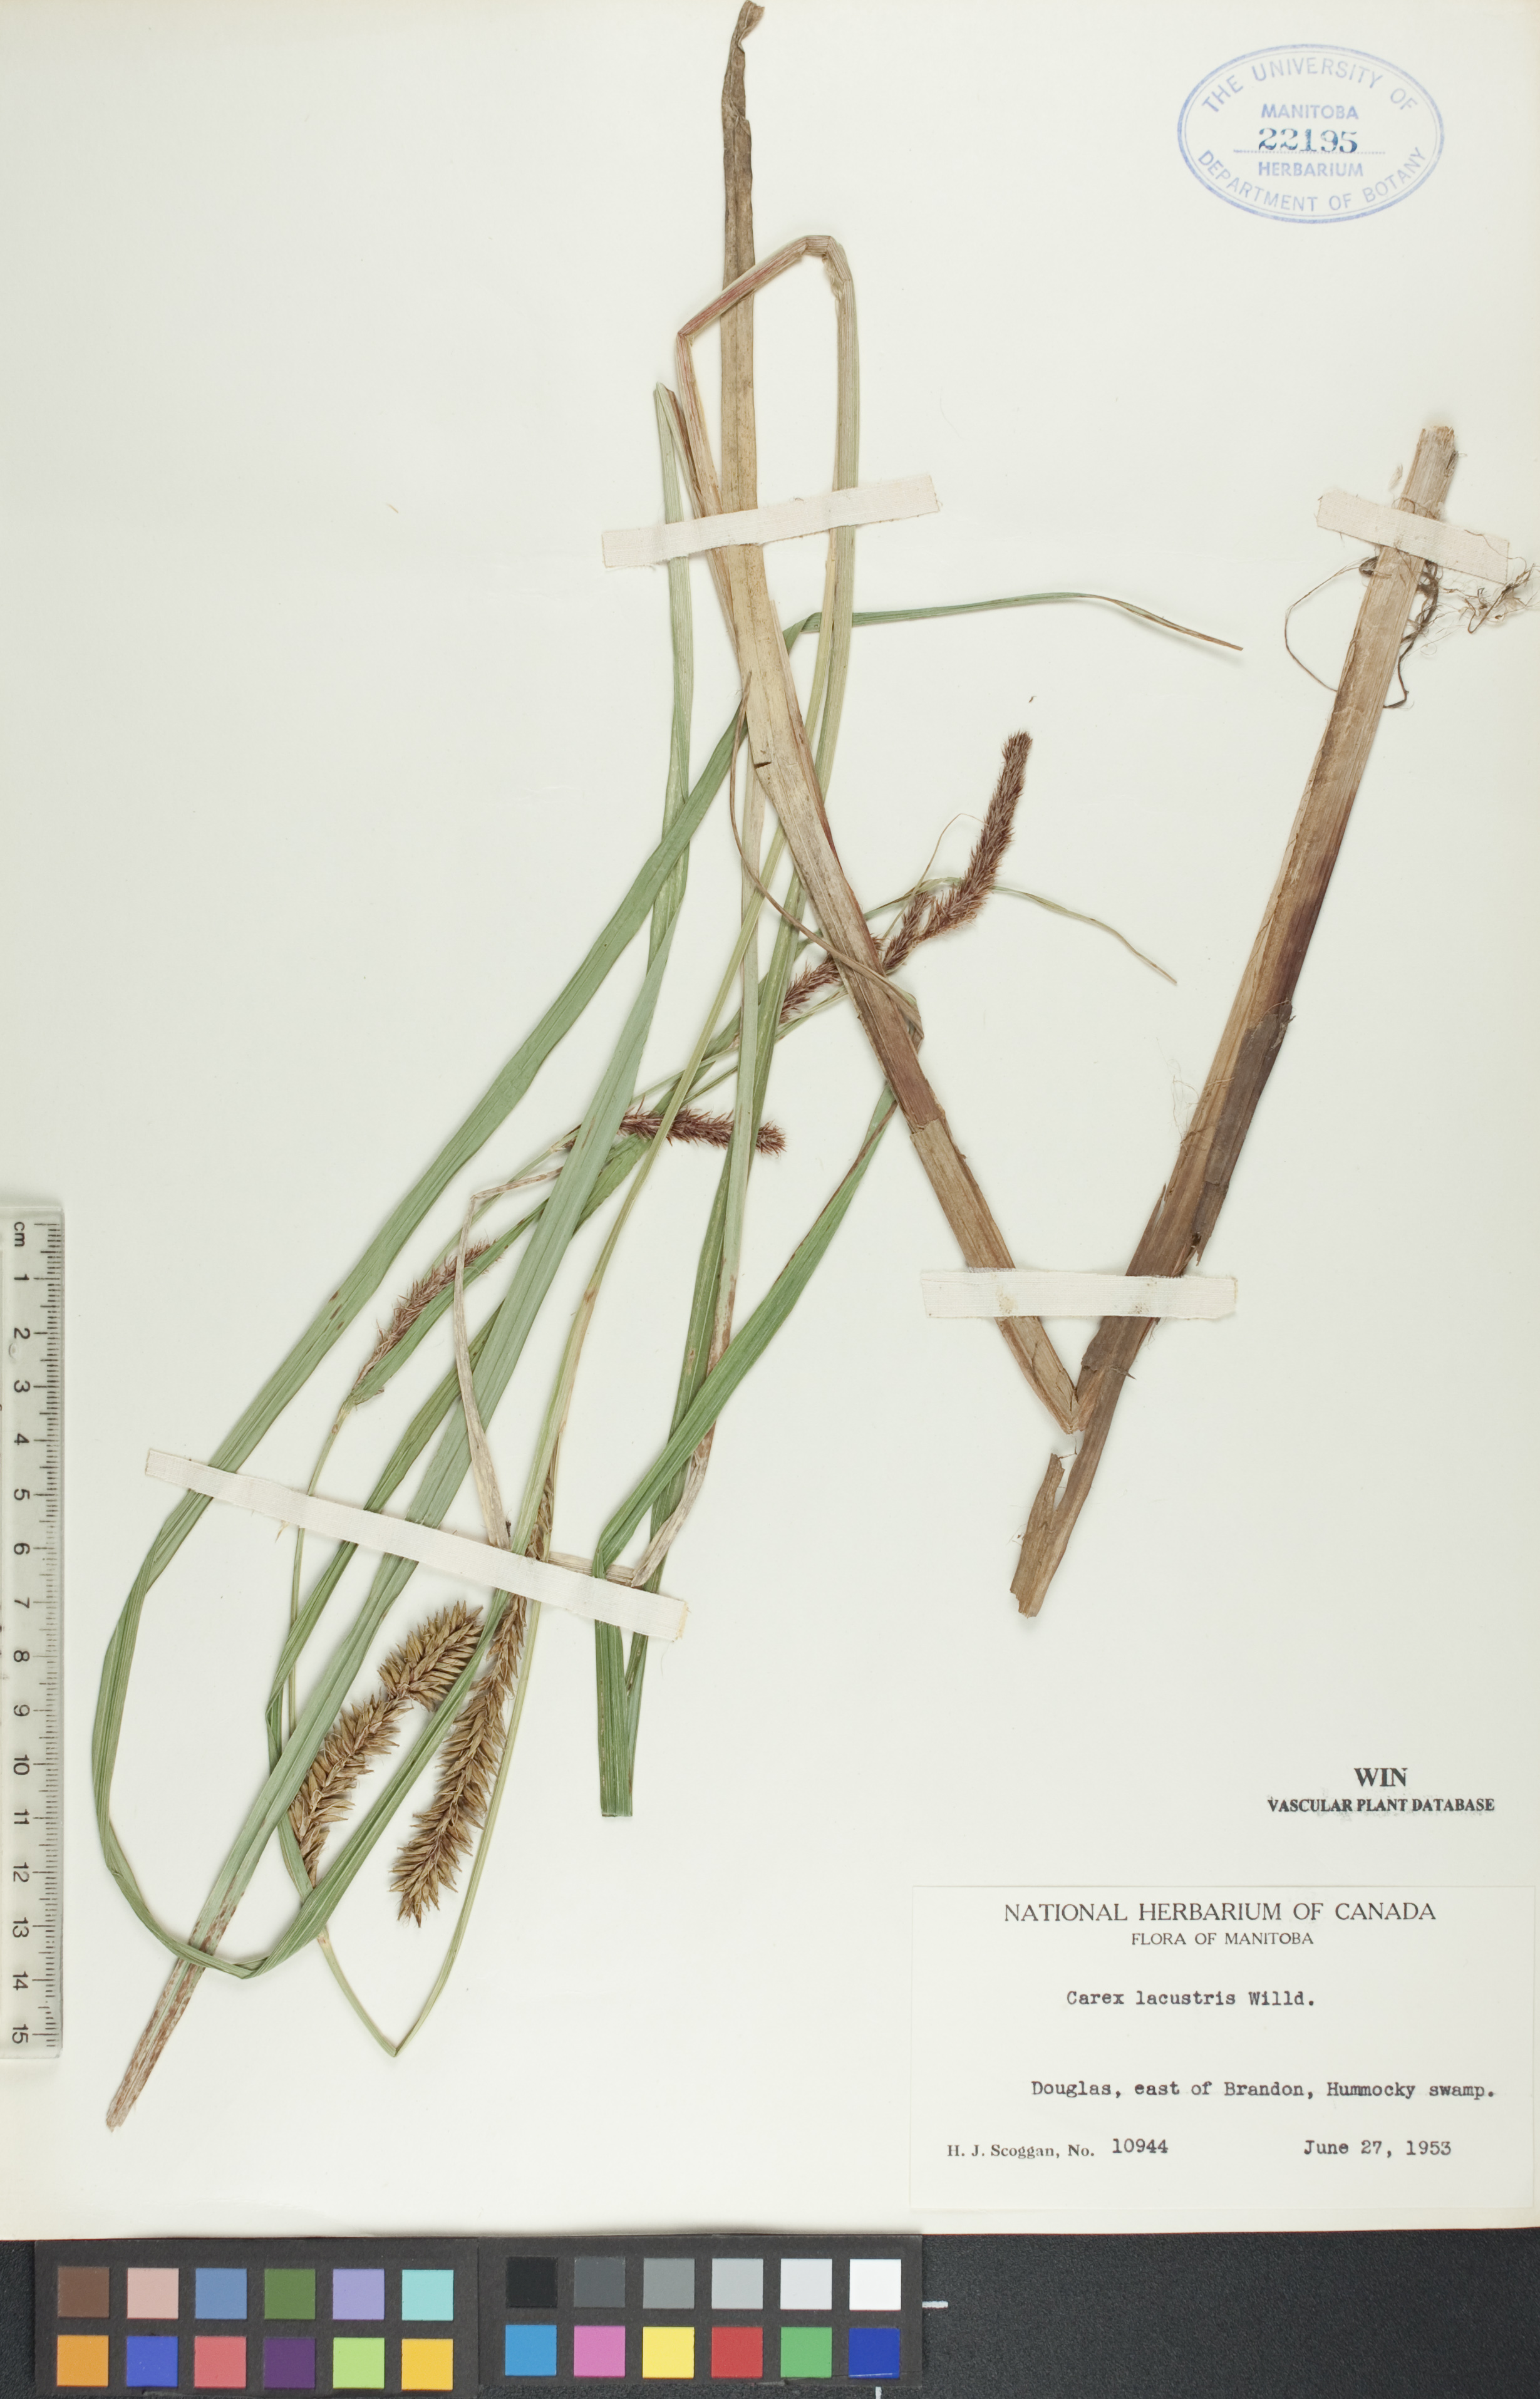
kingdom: Plantae
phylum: Tracheophyta
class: Liliopsida
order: Poales
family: Cyperaceae
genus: Carex
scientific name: Carex lacustris
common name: Common lake sedge
